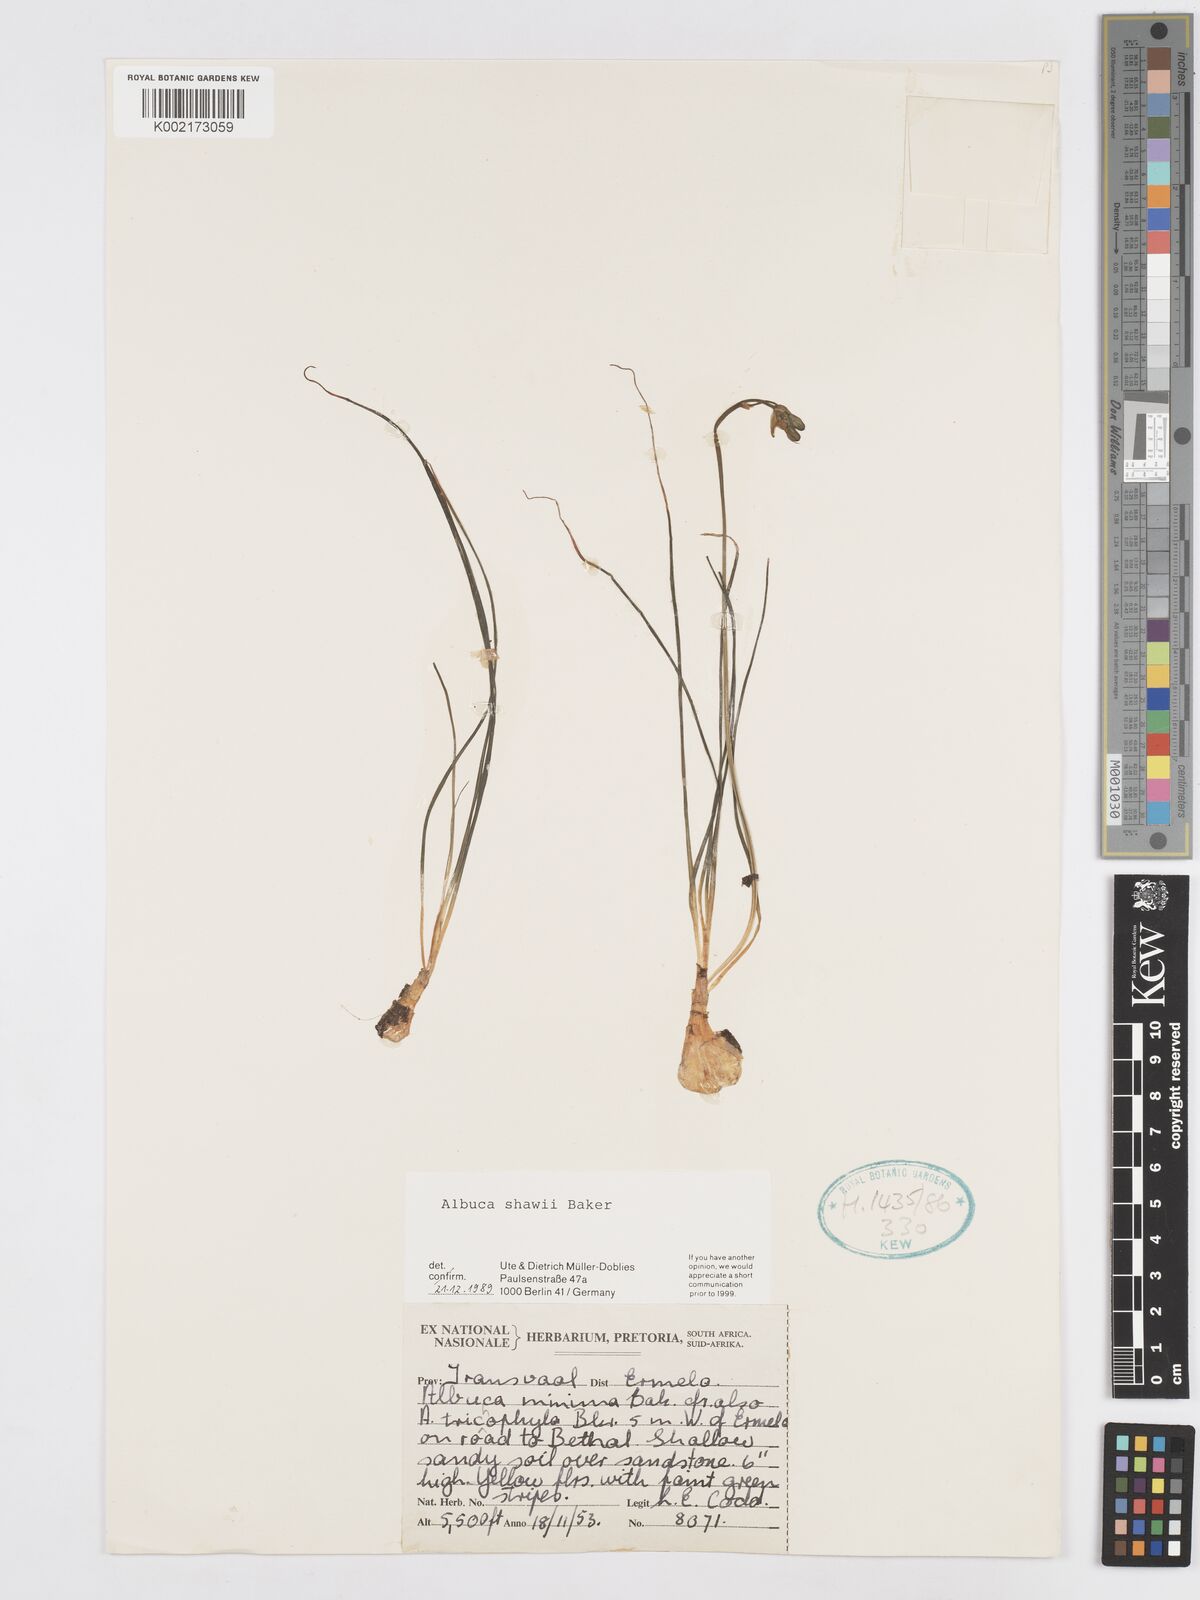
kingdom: Plantae
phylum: Tracheophyta
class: Liliopsida
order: Asparagales
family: Asparagaceae
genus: Albuca
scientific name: Albuca shawii
